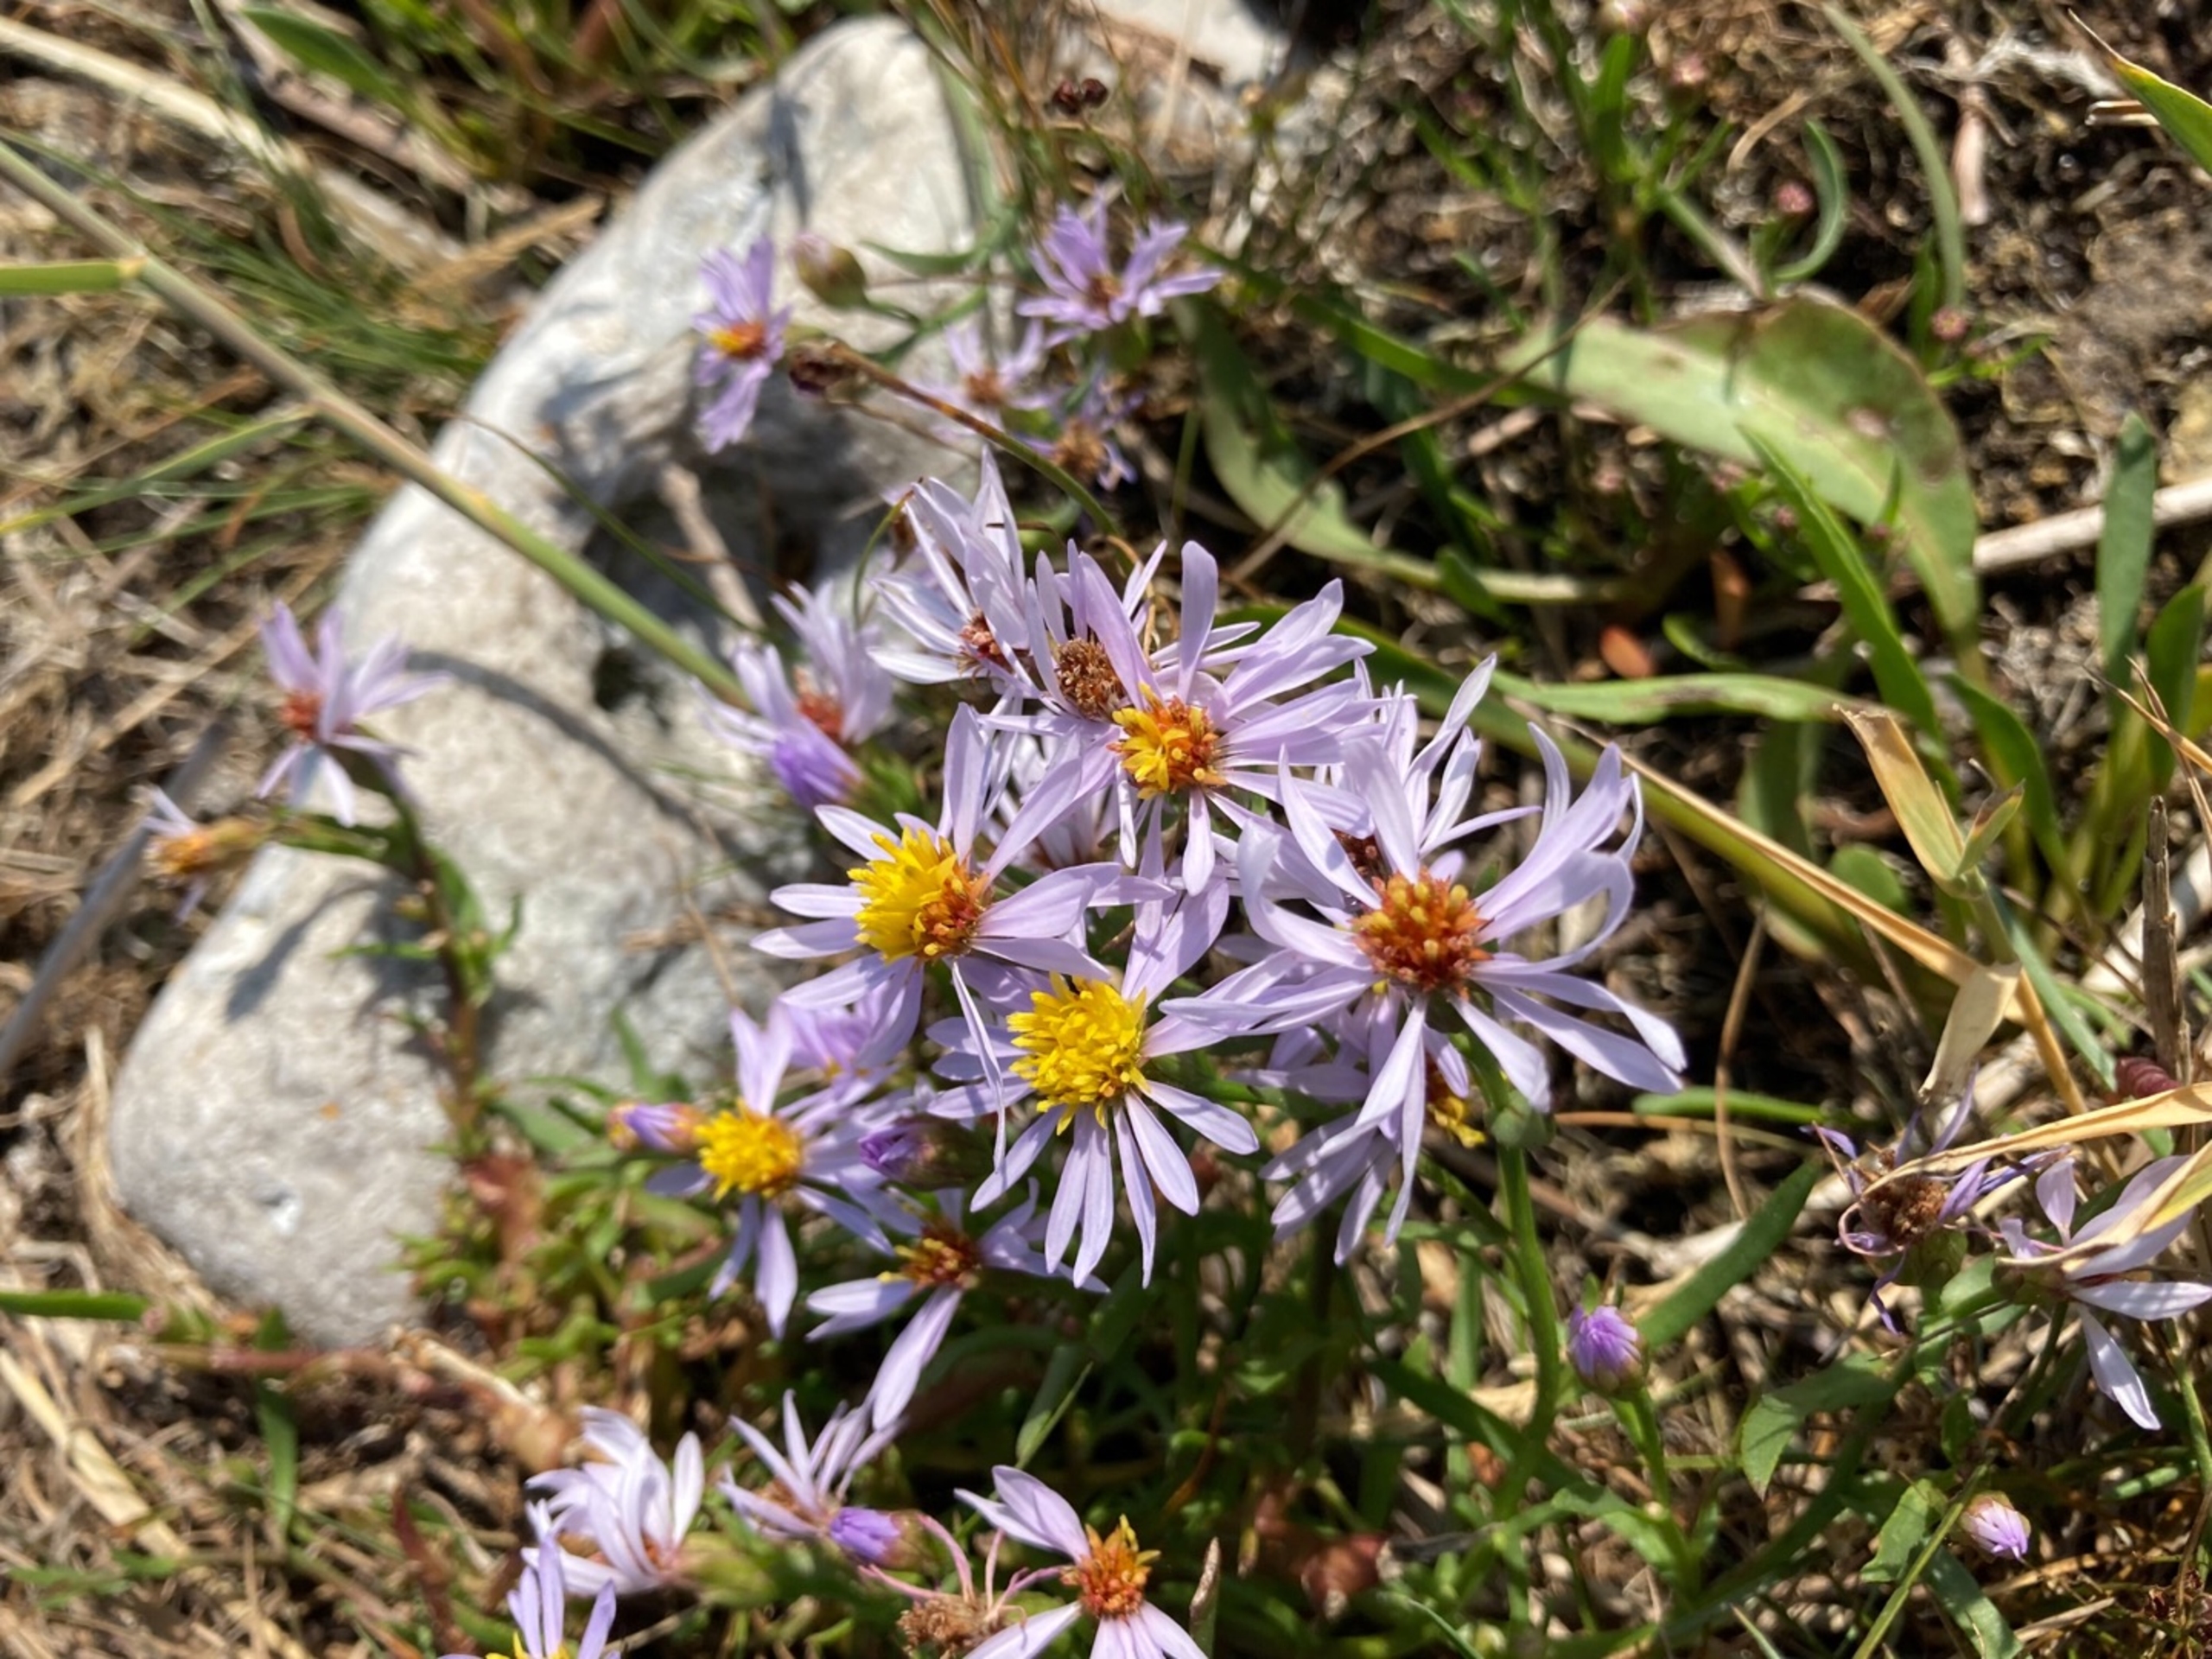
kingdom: Plantae
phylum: Tracheophyta
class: Magnoliopsida
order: Asterales
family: Asteraceae
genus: Tripolium
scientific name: Tripolium pannonicum
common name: Strandasters
